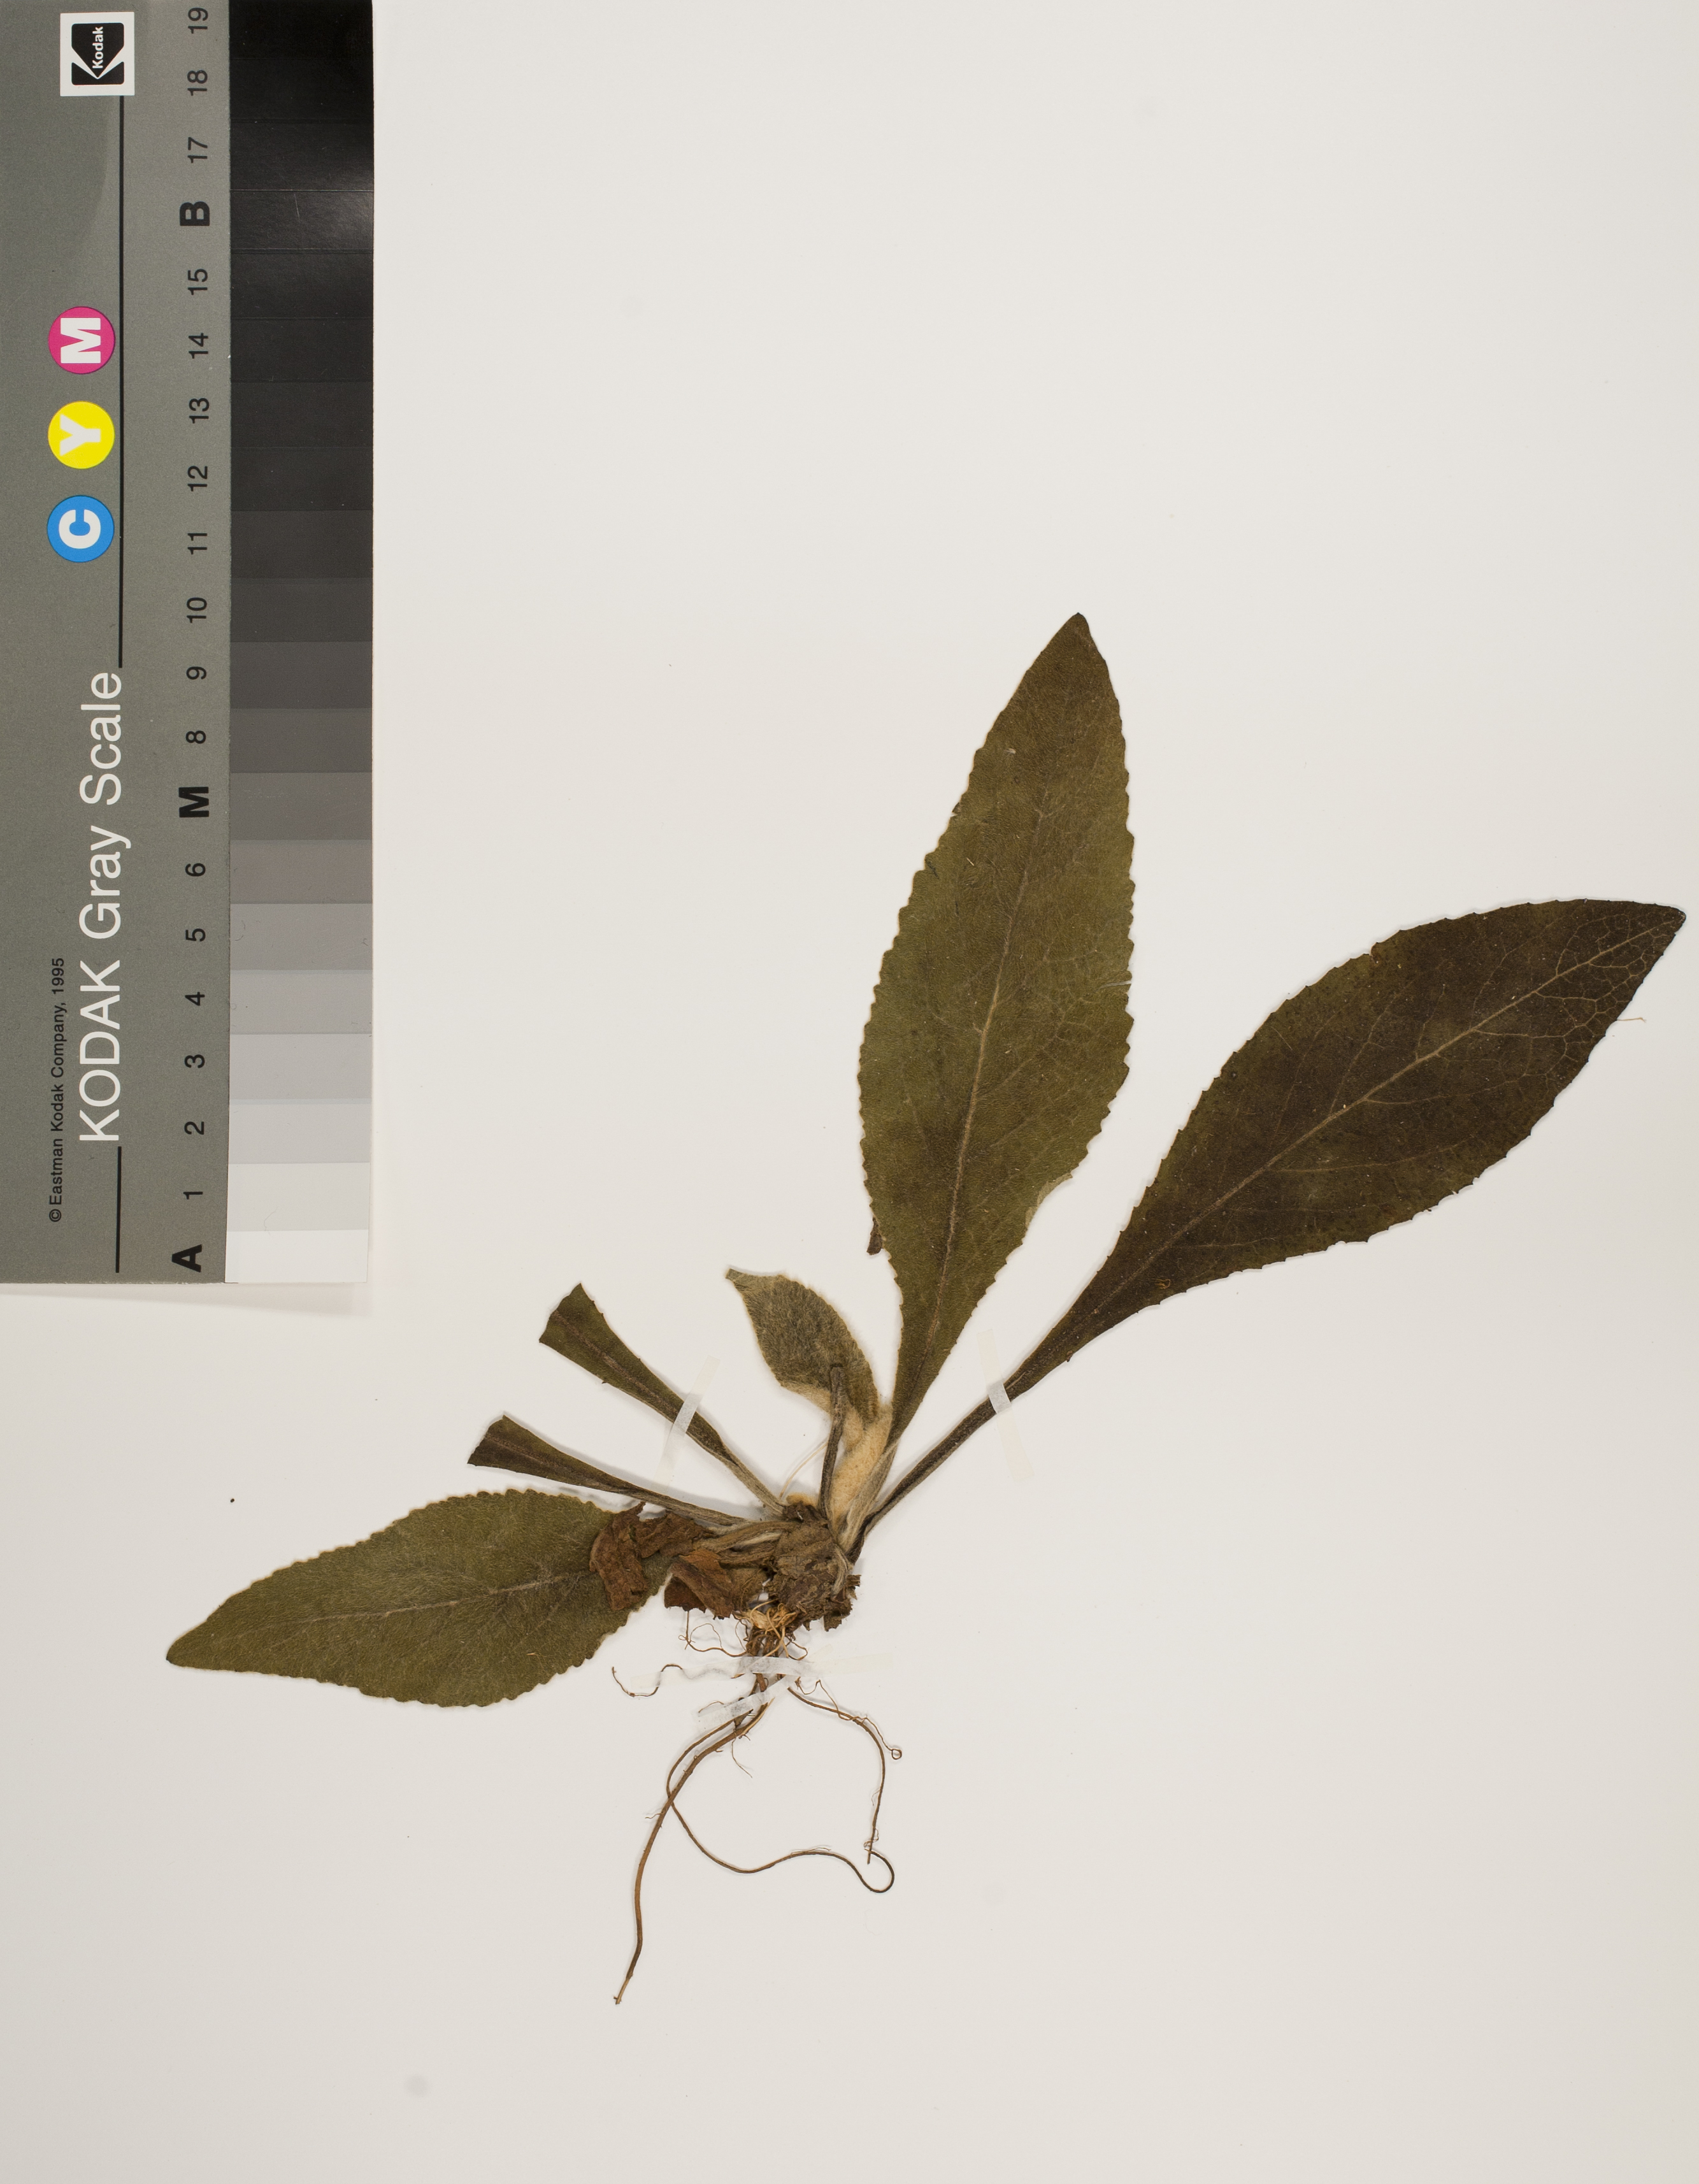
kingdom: Plantae
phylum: Tracheophyta
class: Magnoliopsida
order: Asterales
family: Asteraceae
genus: Pentanema
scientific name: Pentanema squarrosum
